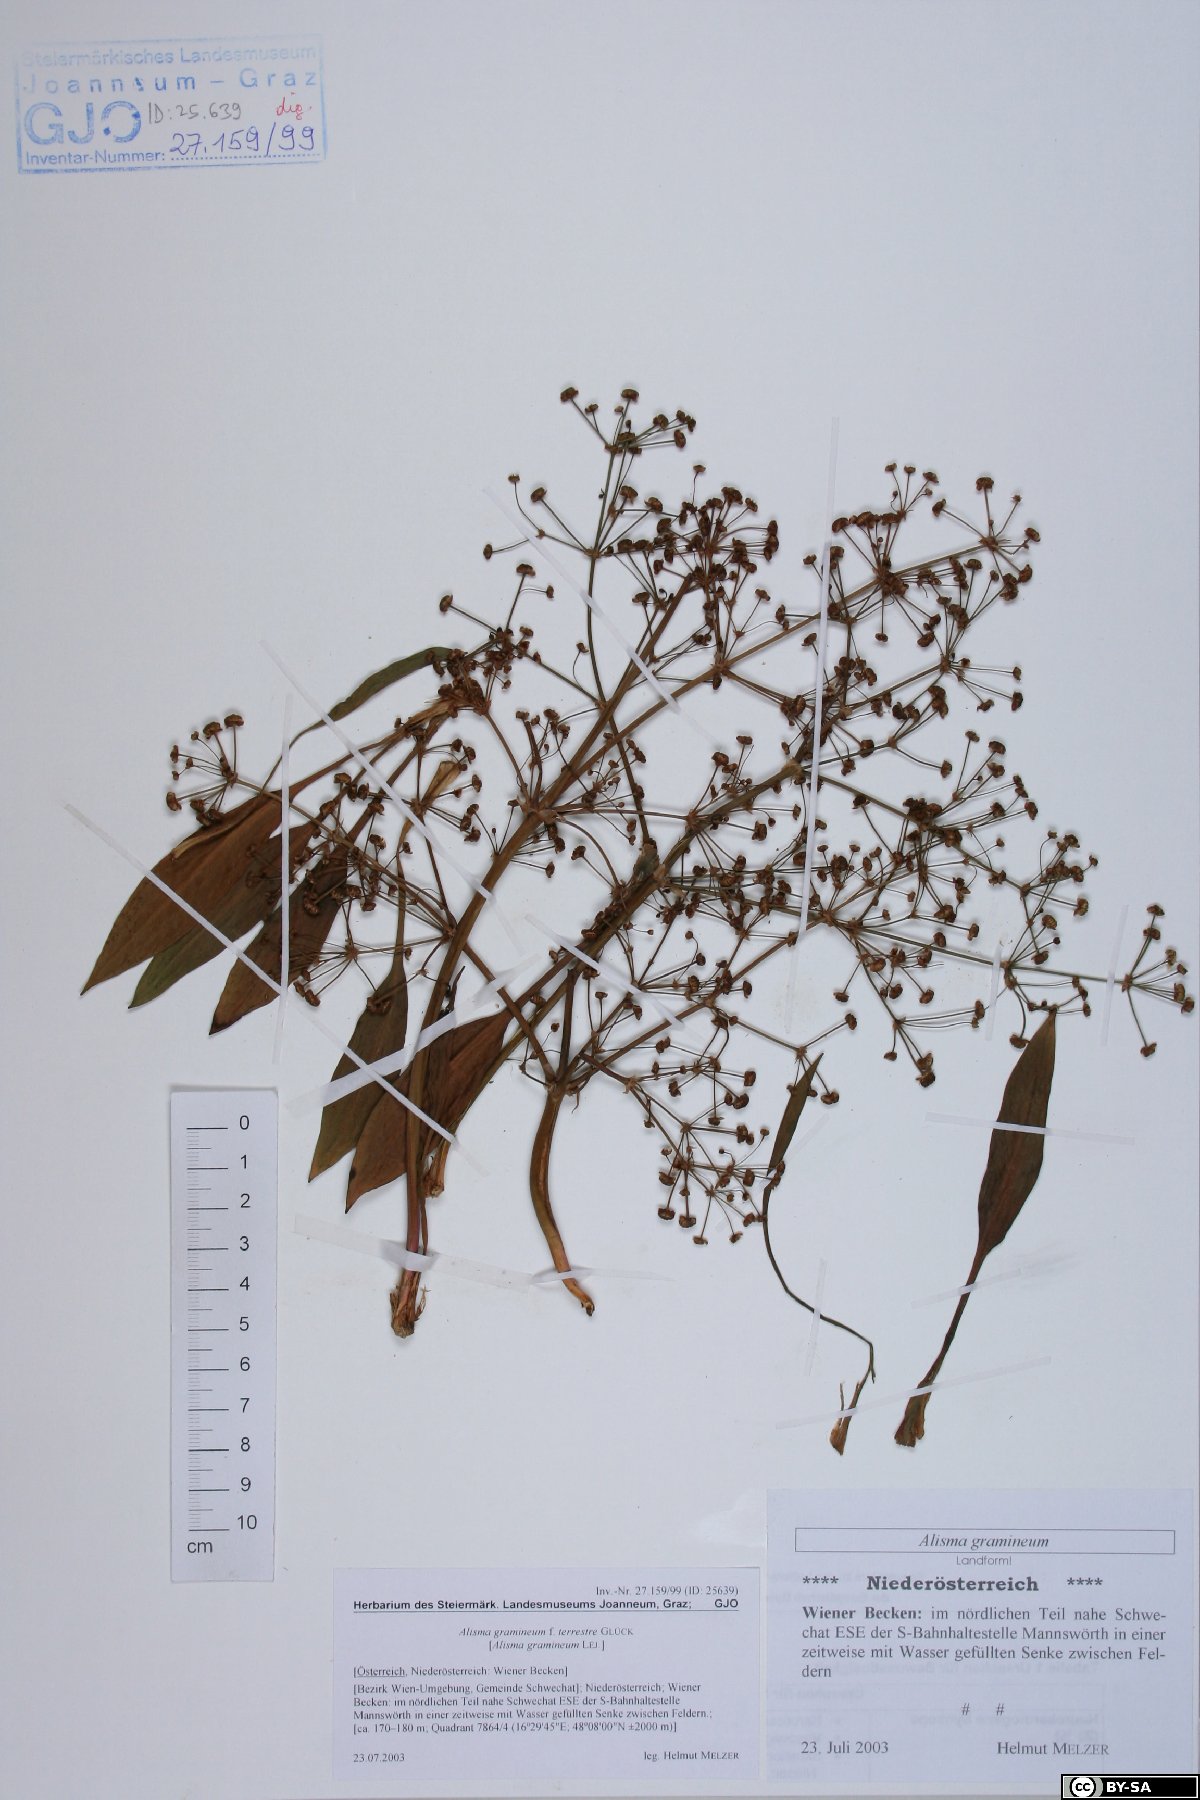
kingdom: Plantae
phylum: Tracheophyta
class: Liliopsida
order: Alismatales
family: Alismataceae
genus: Alisma
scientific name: Alisma gramineum
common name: Ribbon-leaved water-plantain
